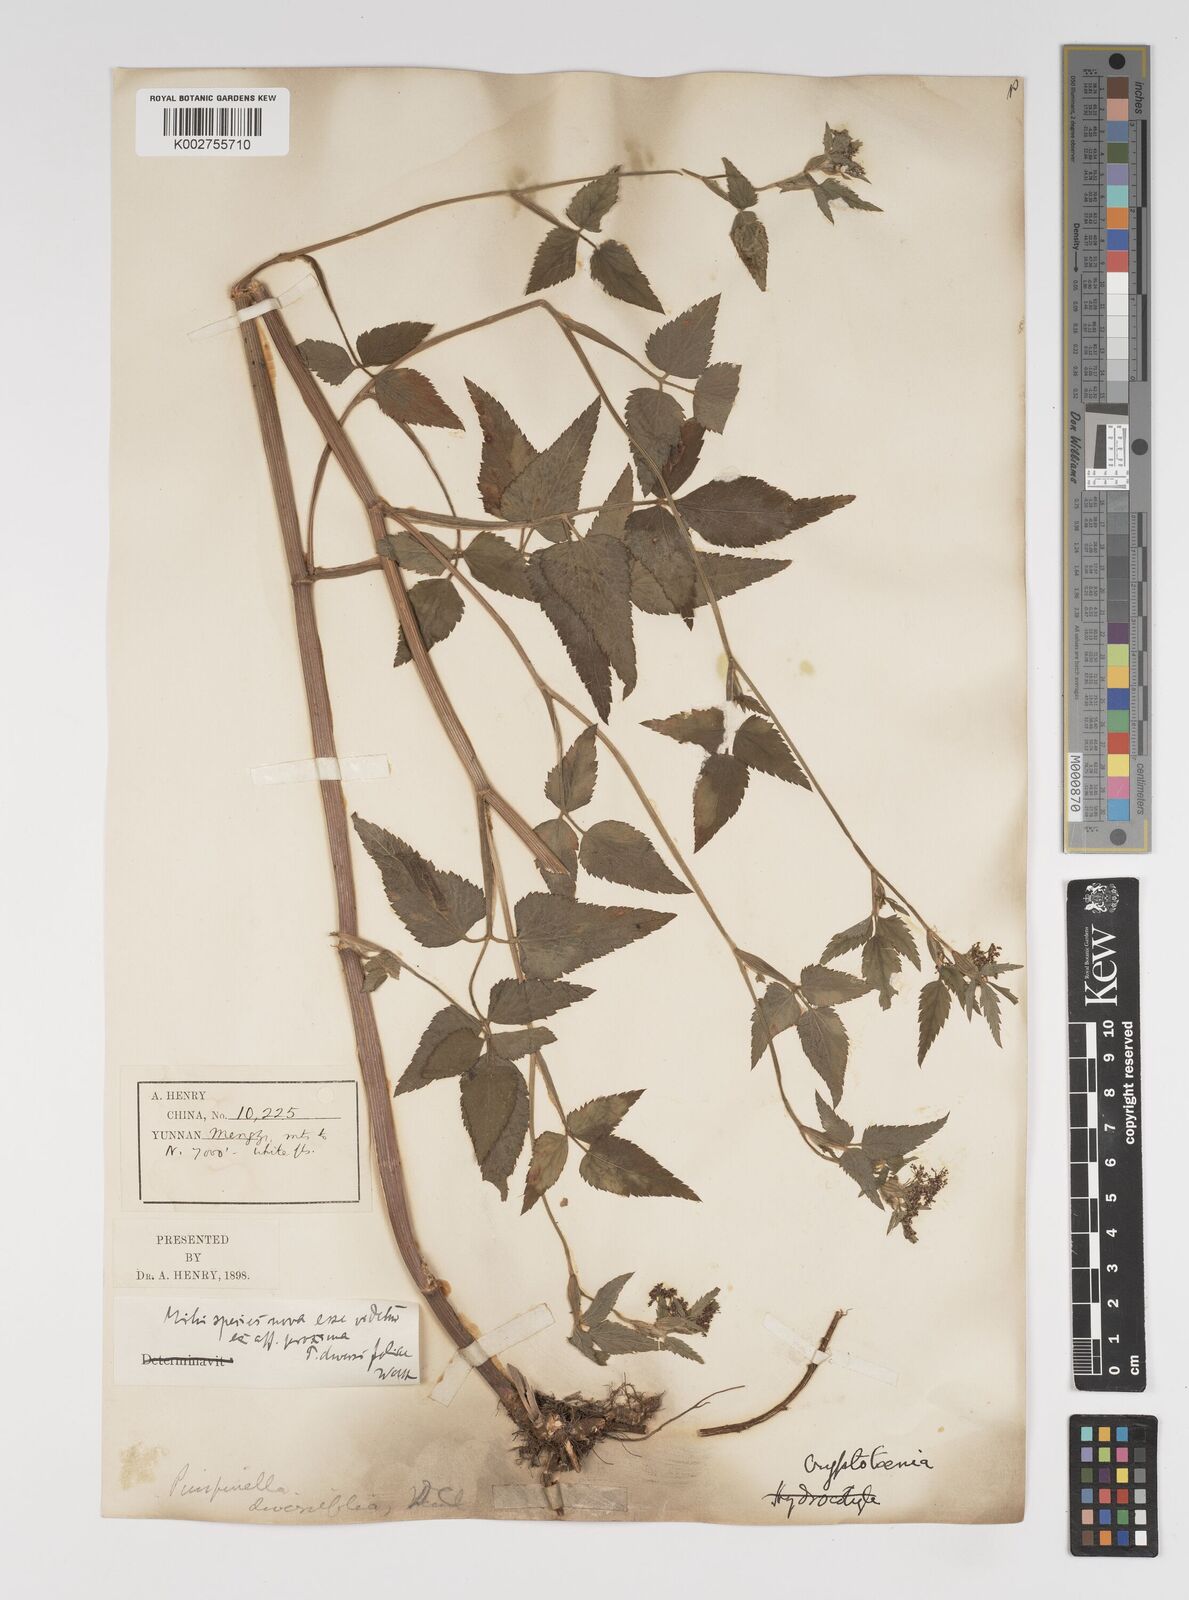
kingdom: Plantae
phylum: Tracheophyta
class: Magnoliopsida
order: Apiales
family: Apiaceae
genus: Pimpinella
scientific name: Pimpinella diversifolia
